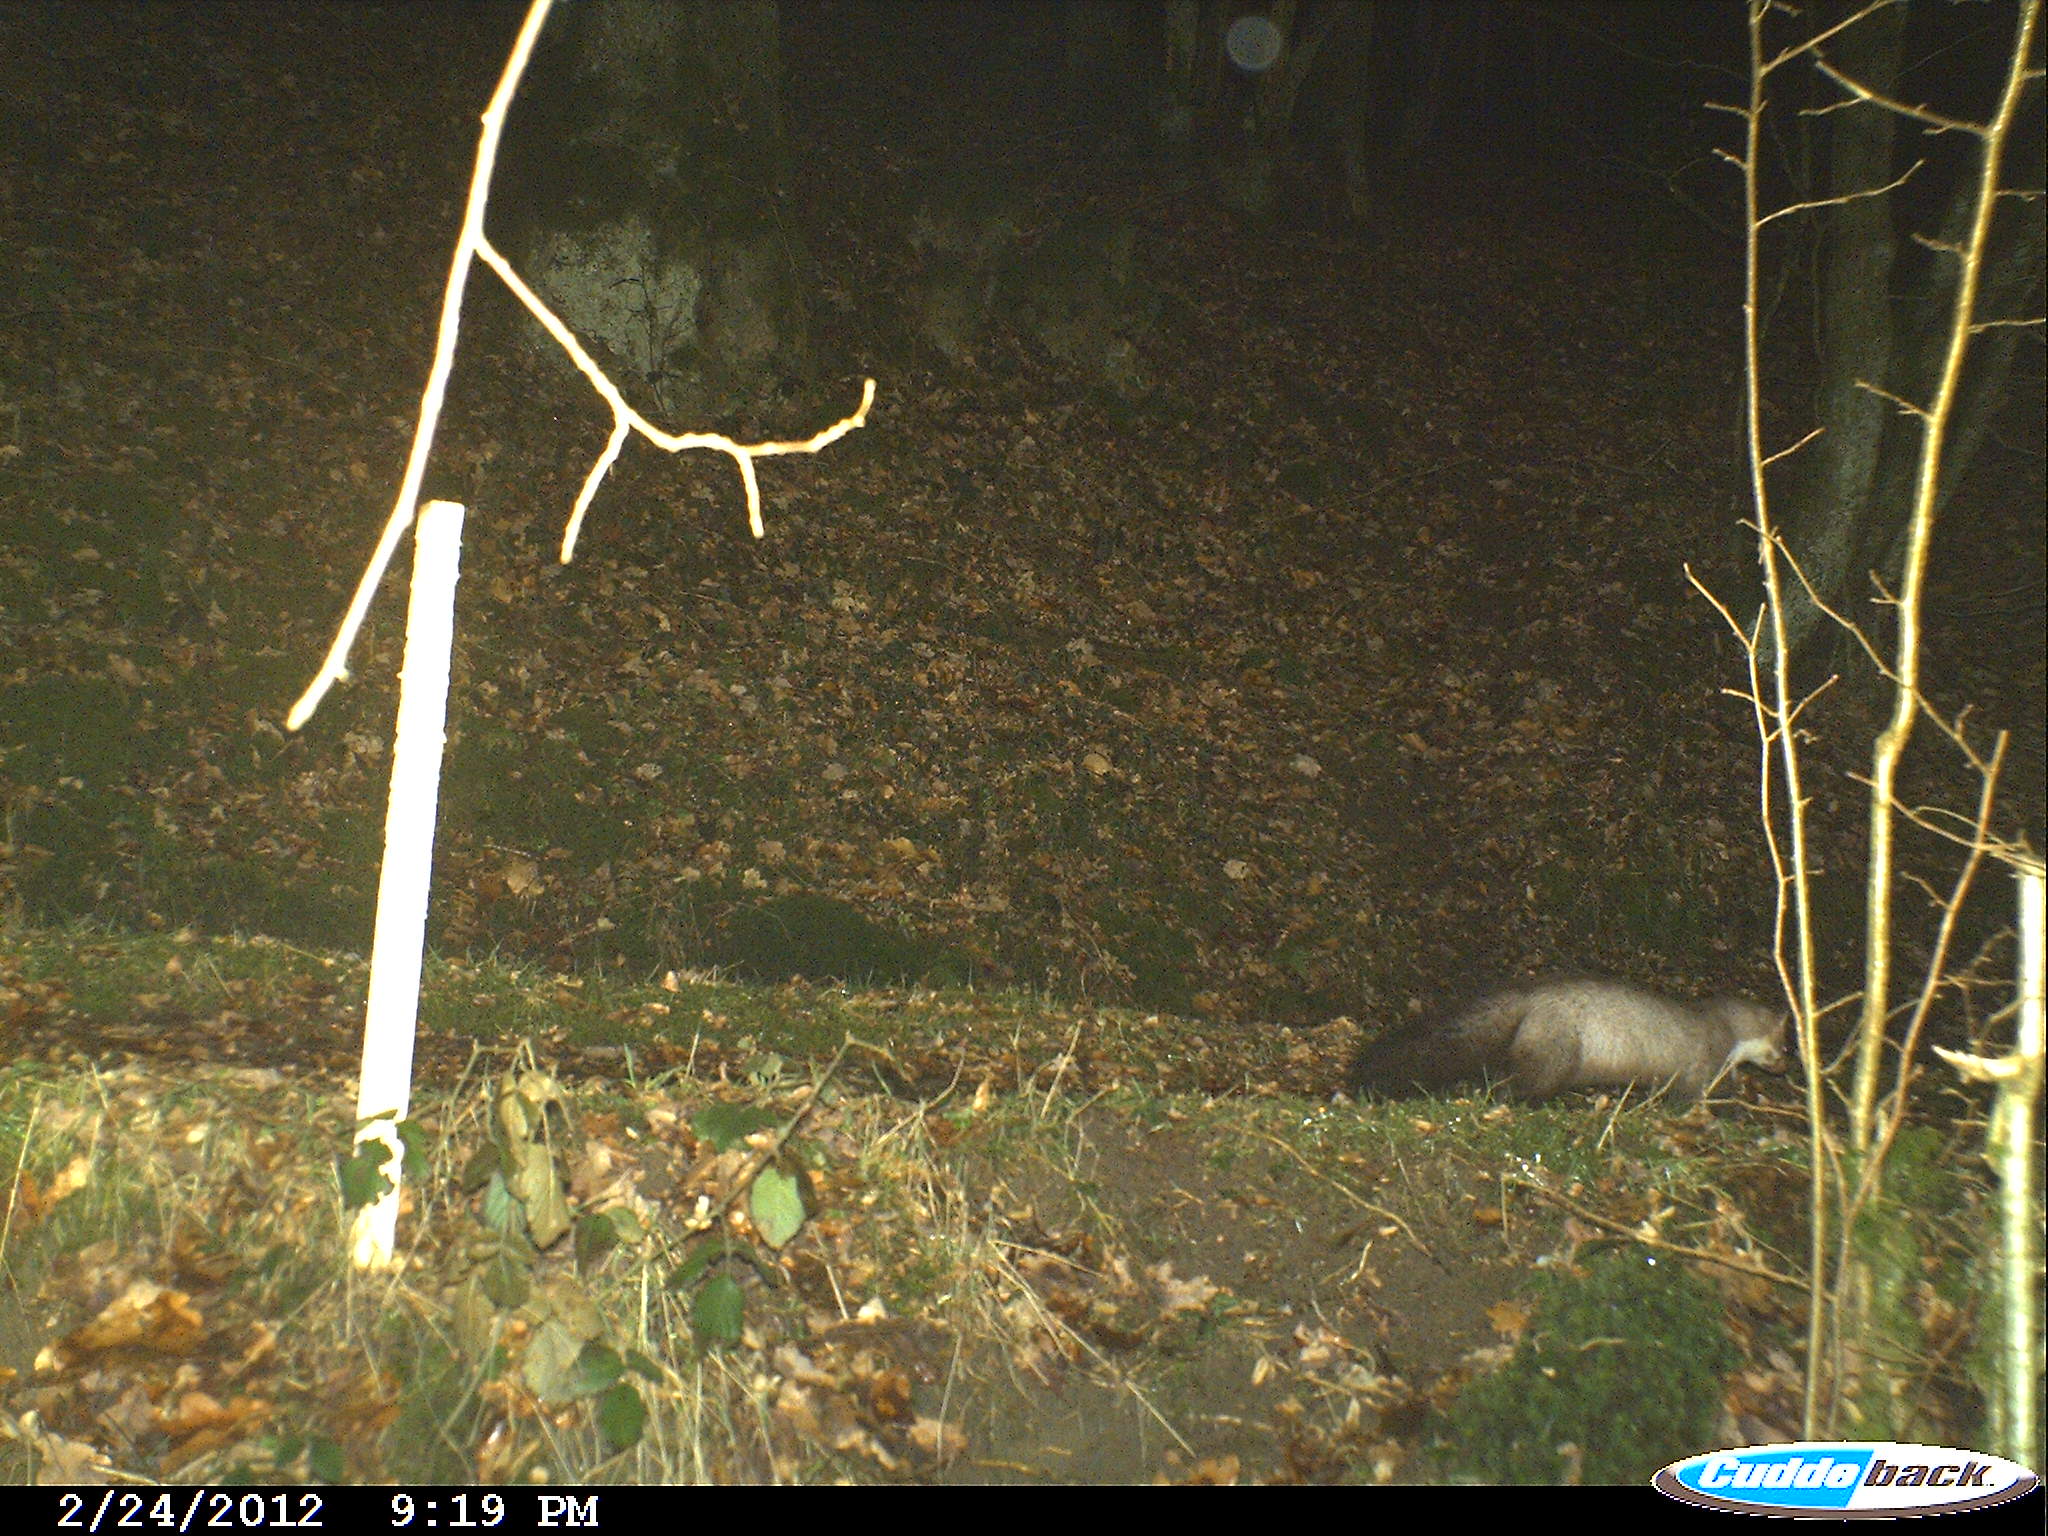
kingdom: Animalia
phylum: Chordata
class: Mammalia
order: Carnivora
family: Mustelidae
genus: Martes
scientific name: Martes foina
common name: Beech marten
